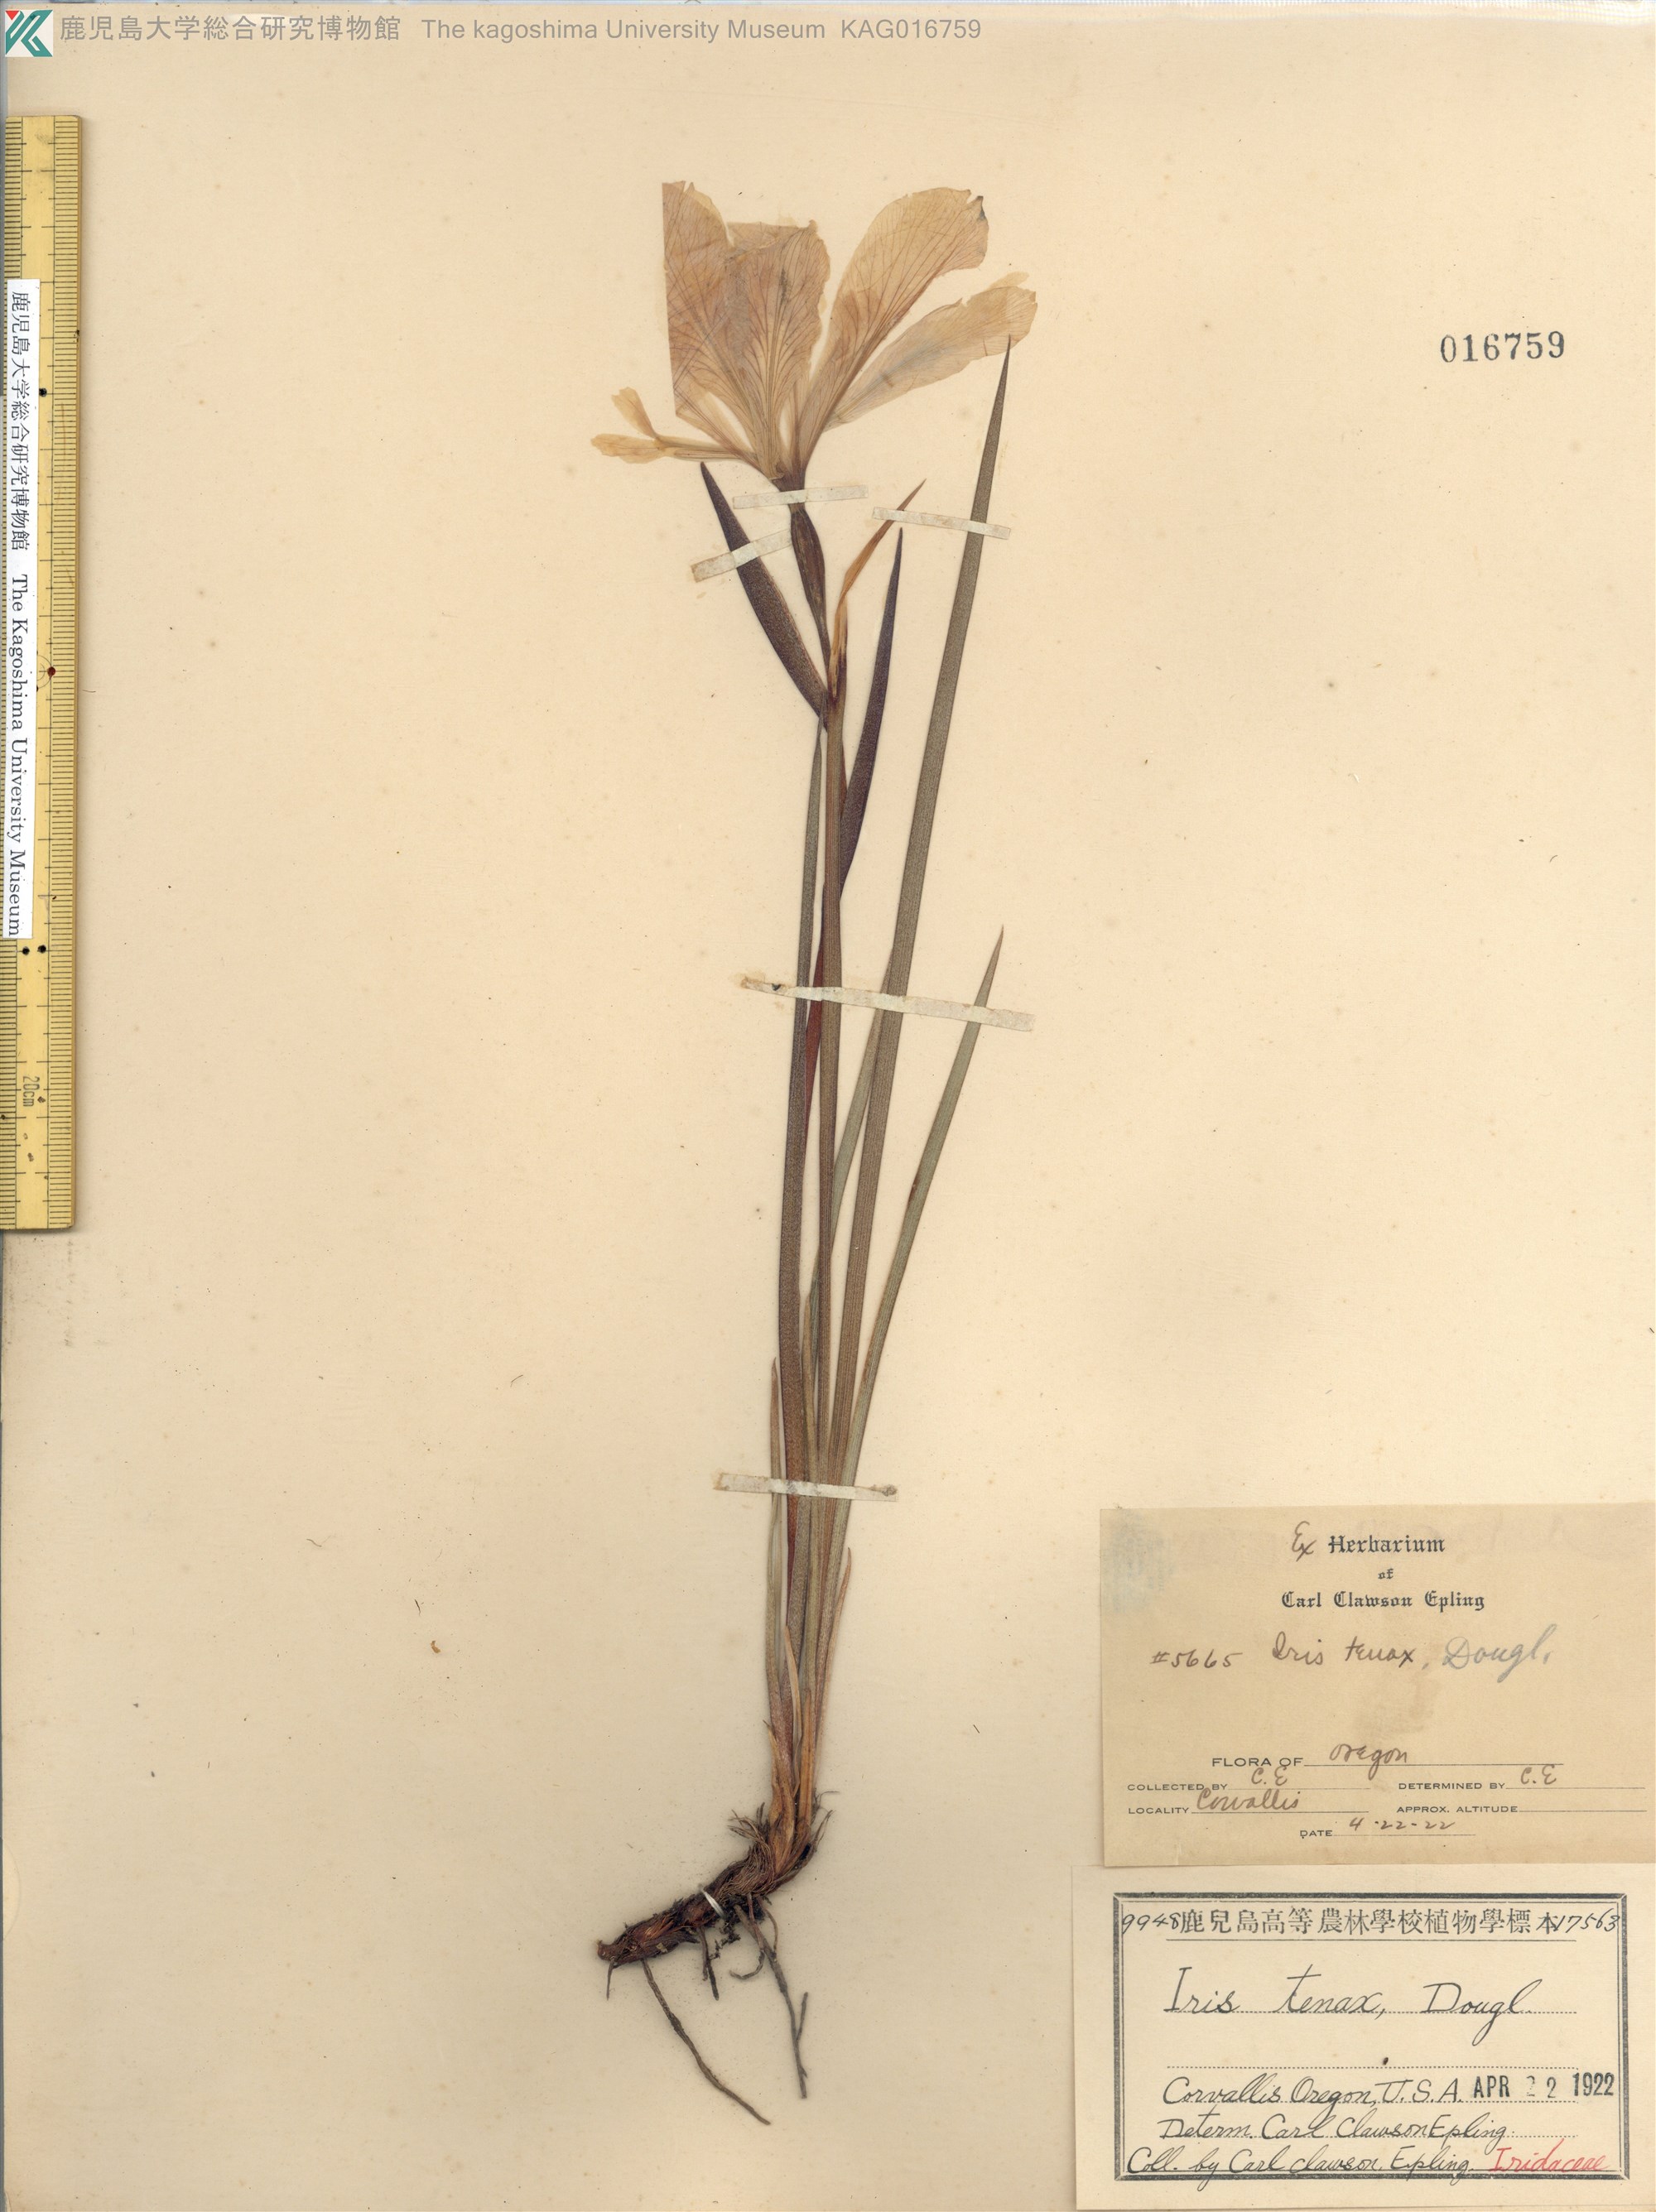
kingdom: Plantae
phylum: Tracheophyta
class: Liliopsida
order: Asparagales
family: Iridaceae
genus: Iris
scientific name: Iris tenax
